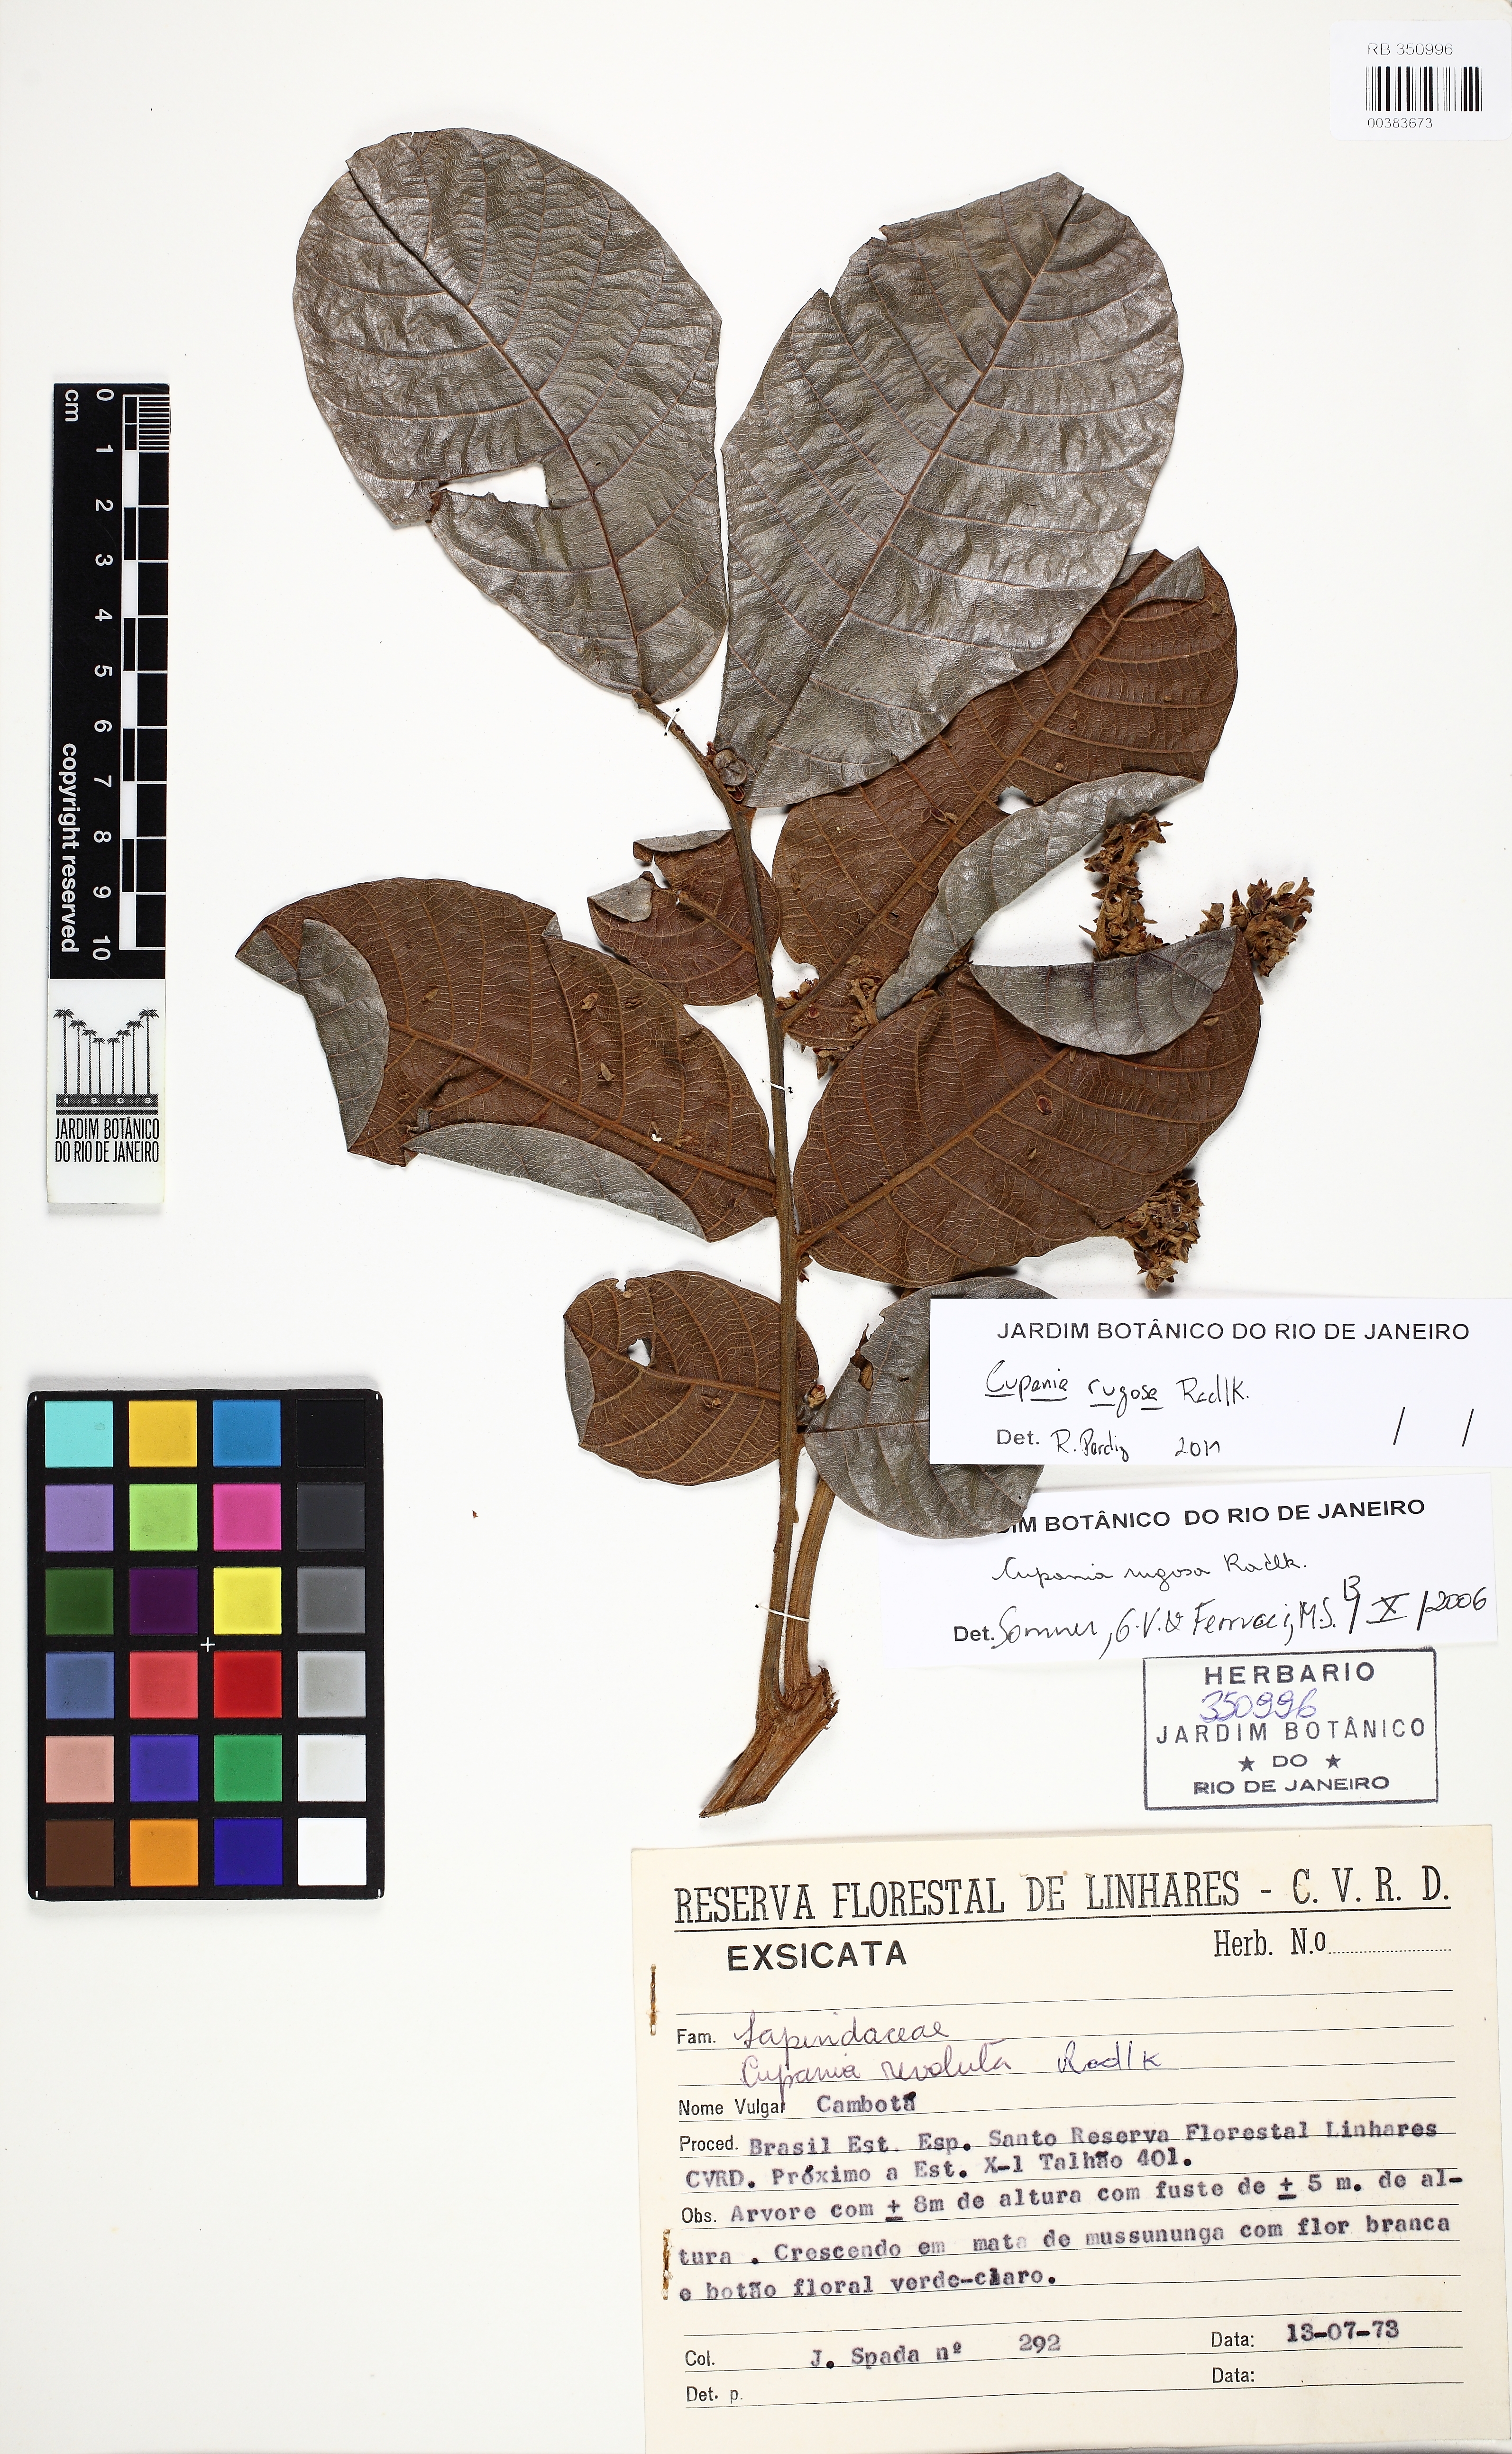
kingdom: Plantae
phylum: Tracheophyta
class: Magnoliopsida
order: Sapindales
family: Sapindaceae
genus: Cupania
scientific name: Cupania rugosa
